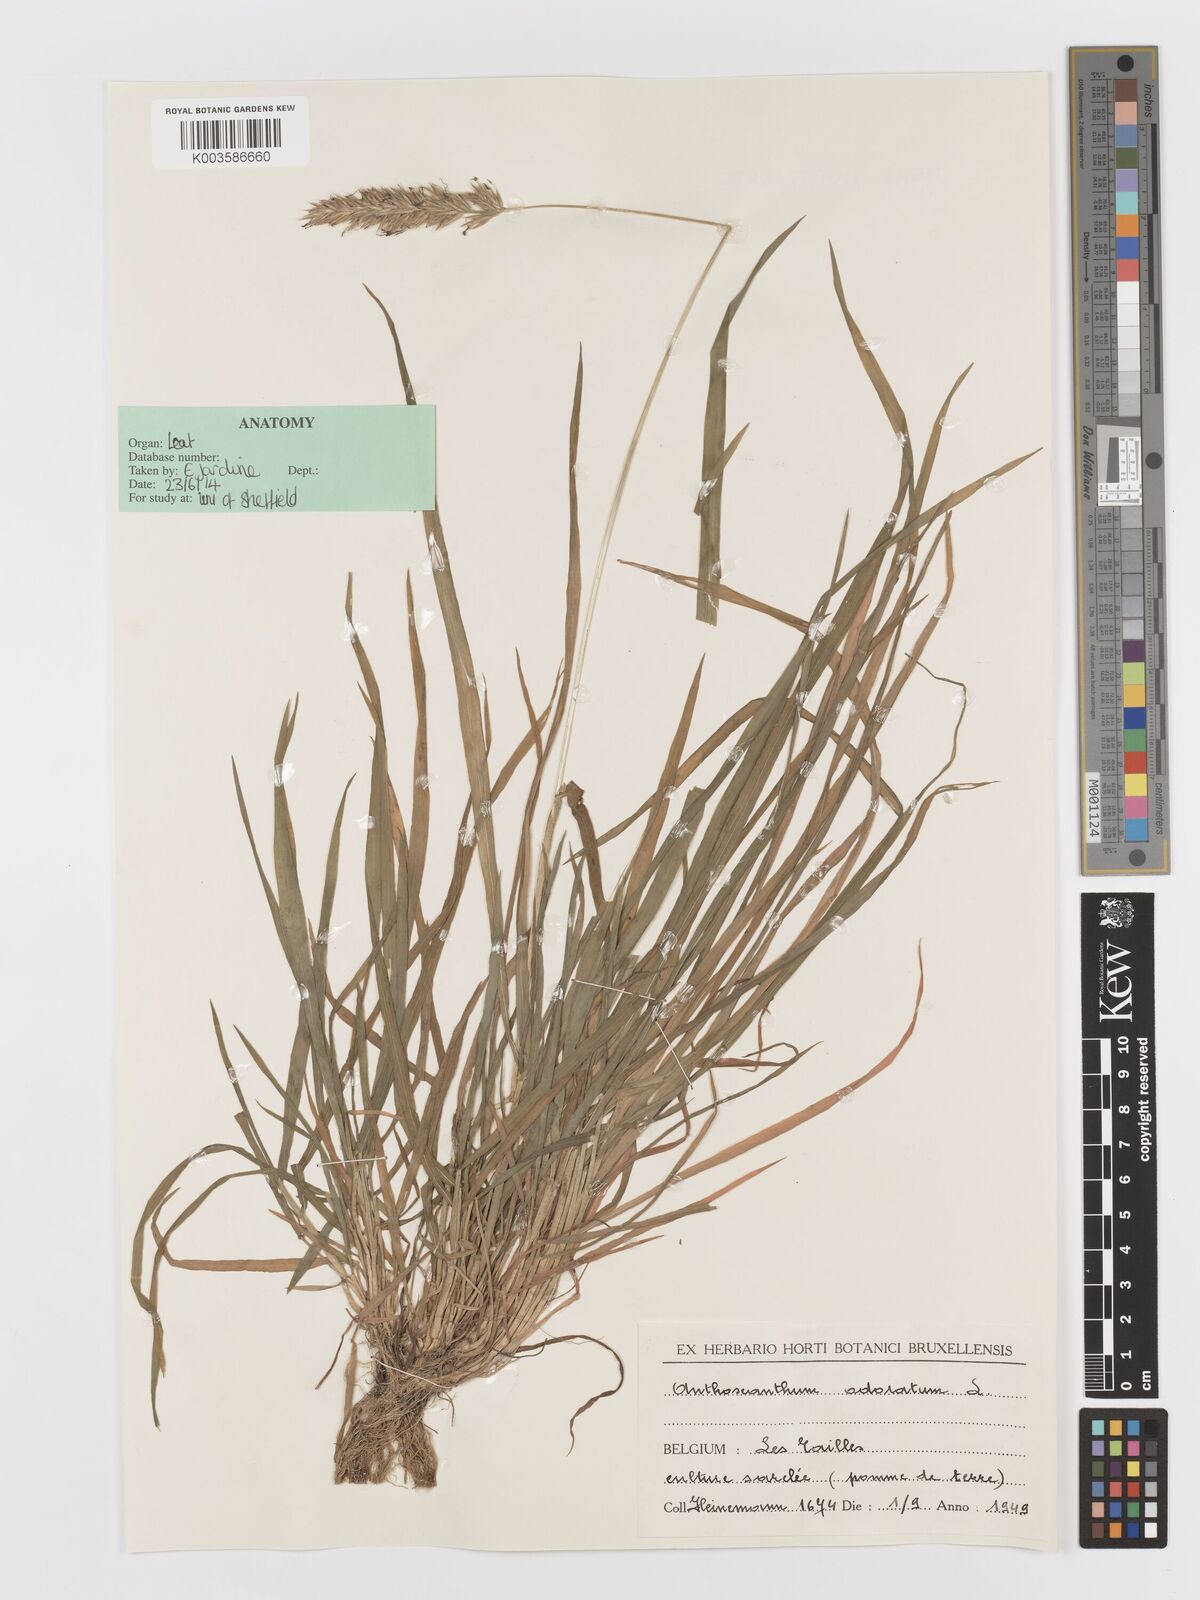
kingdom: Plantae
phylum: Tracheophyta
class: Liliopsida
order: Poales
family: Poaceae
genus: Anthoxanthum
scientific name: Anthoxanthum odoratum
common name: Sweet vernalgrass
